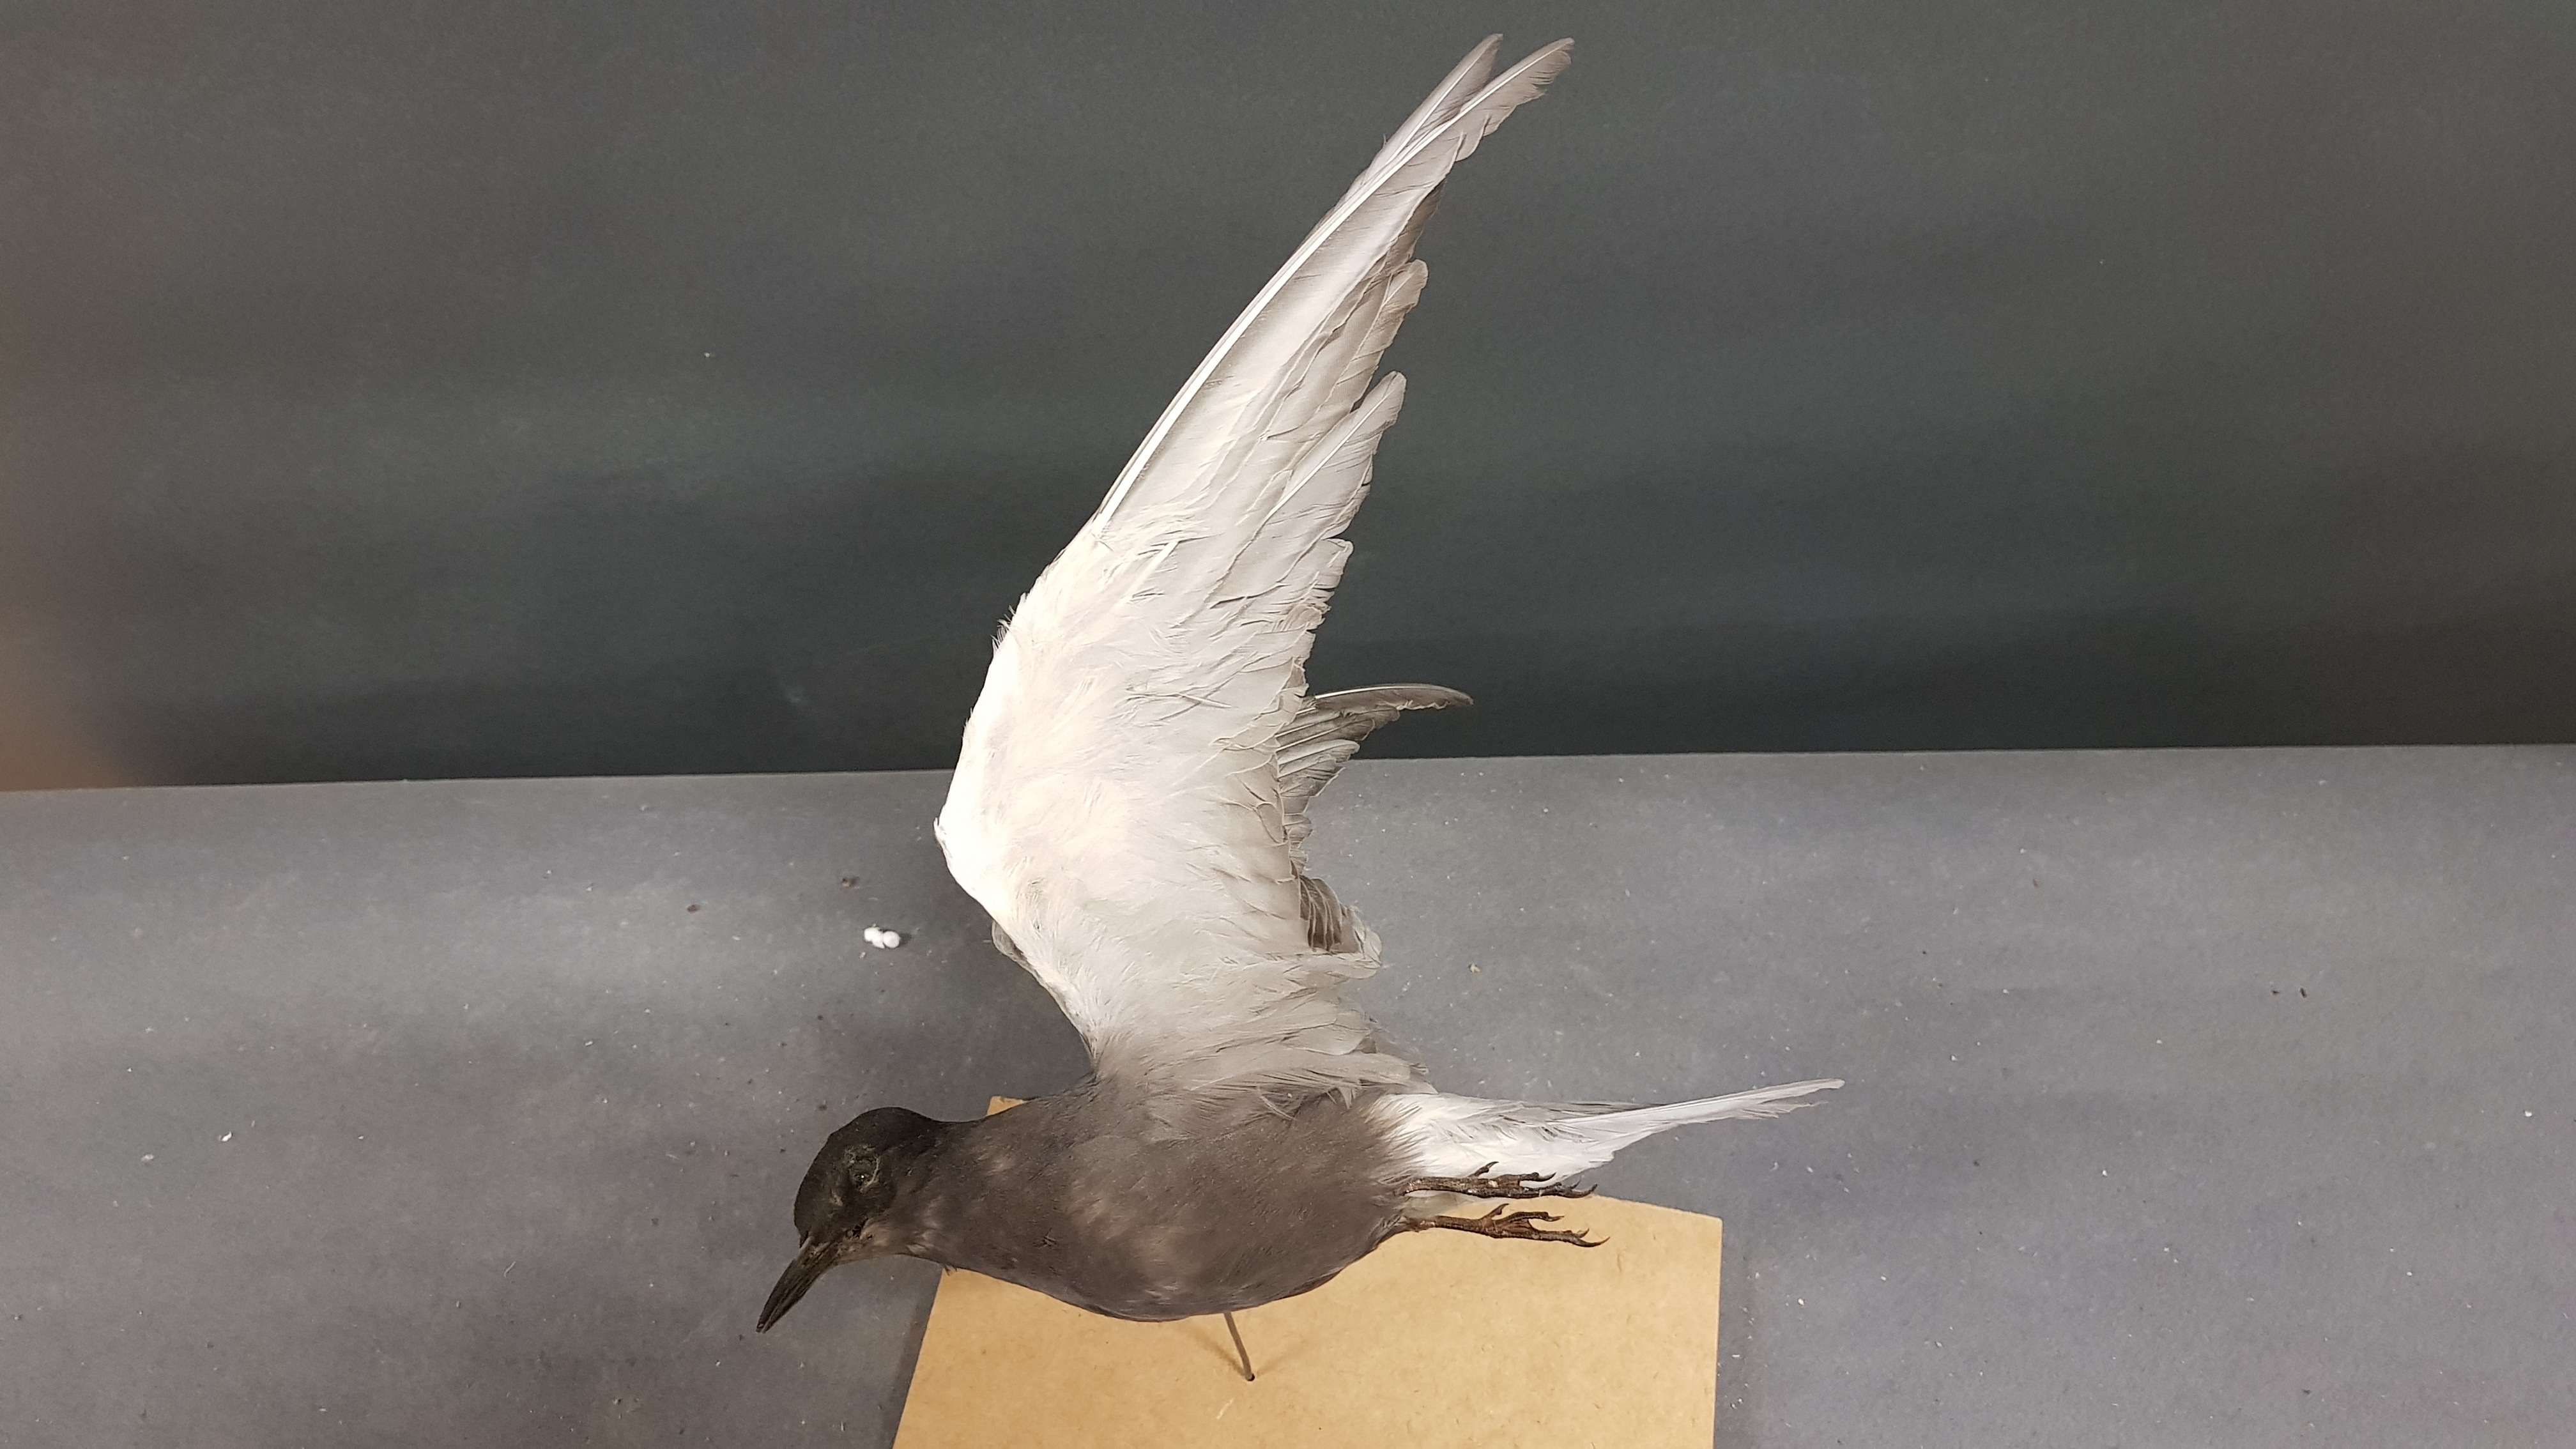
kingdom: Animalia
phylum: Chordata
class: Aves
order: Charadriiformes
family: Laridae
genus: Chlidonias
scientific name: Chlidonias niger
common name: Black tern
